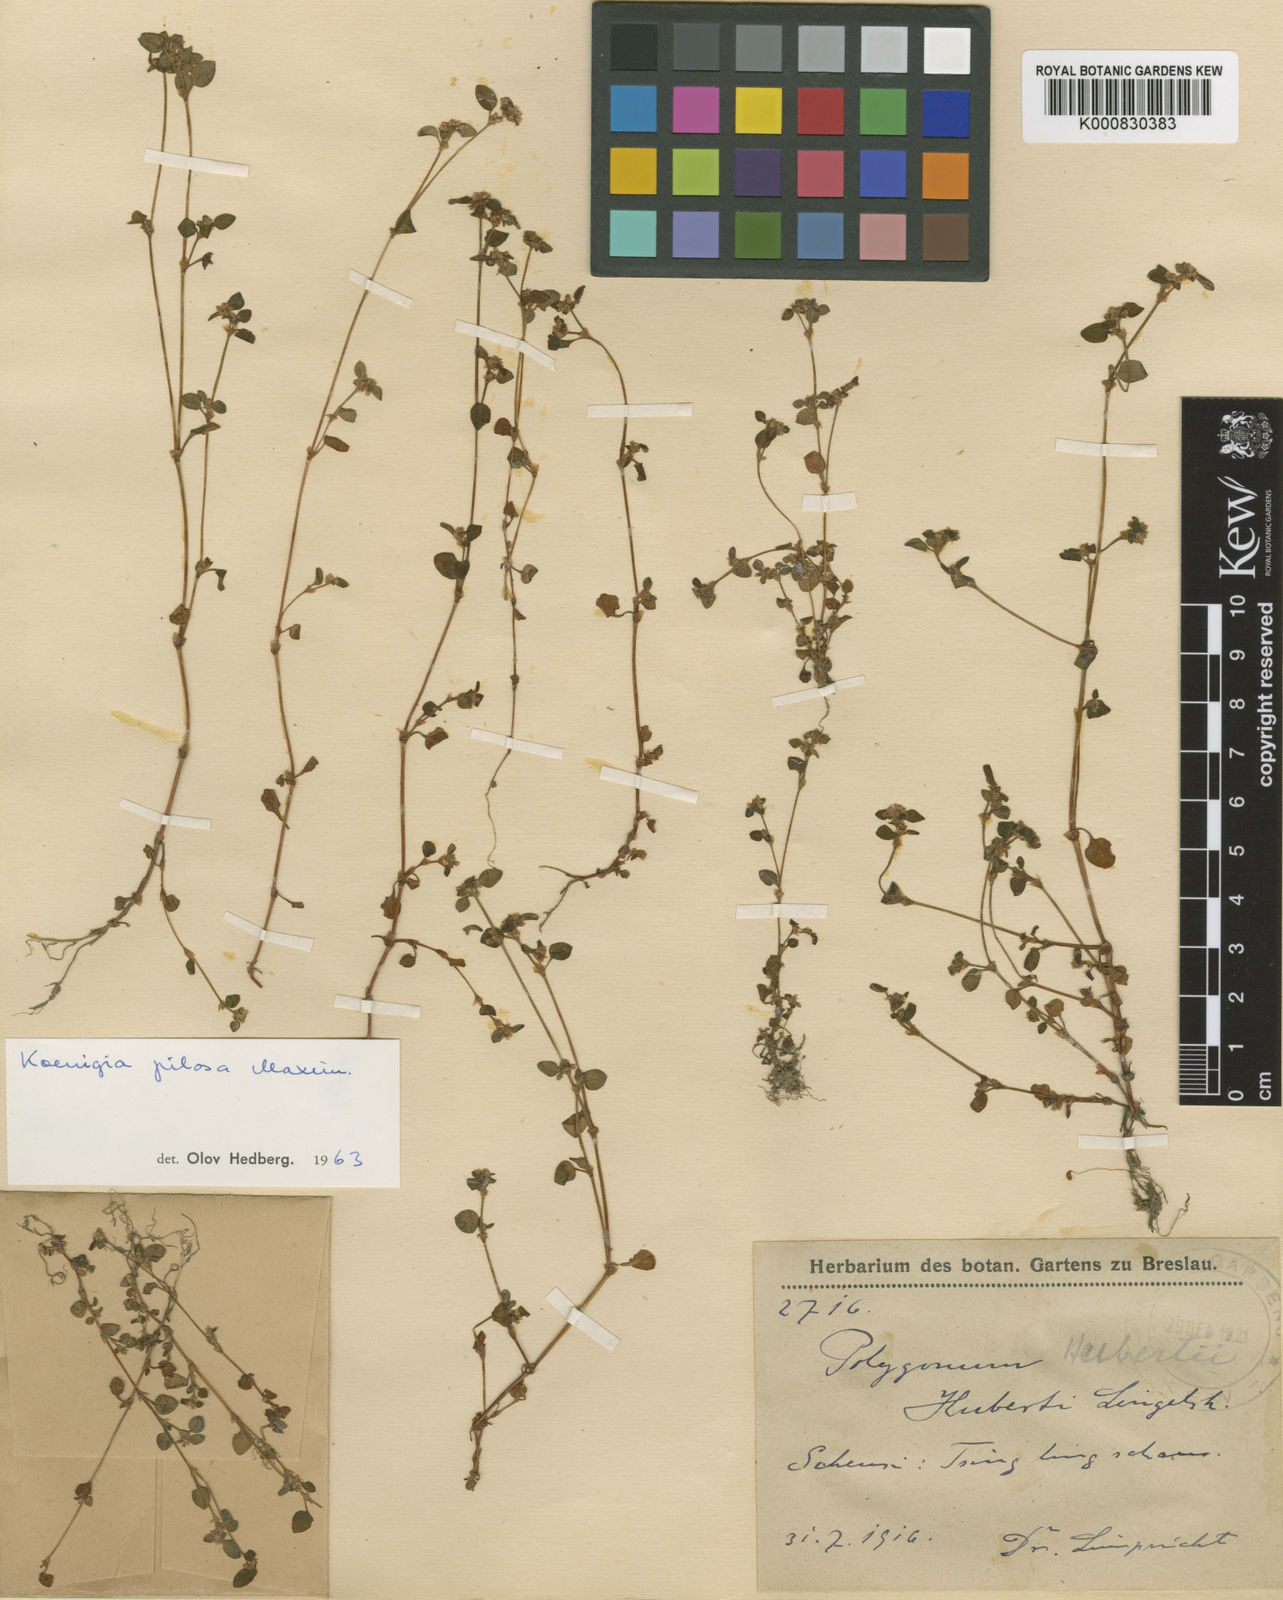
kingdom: Plantae
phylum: Tracheophyta
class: Magnoliopsida
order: Caryophyllales
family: Polygonaceae
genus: Koenigia
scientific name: Koenigia pilosa
